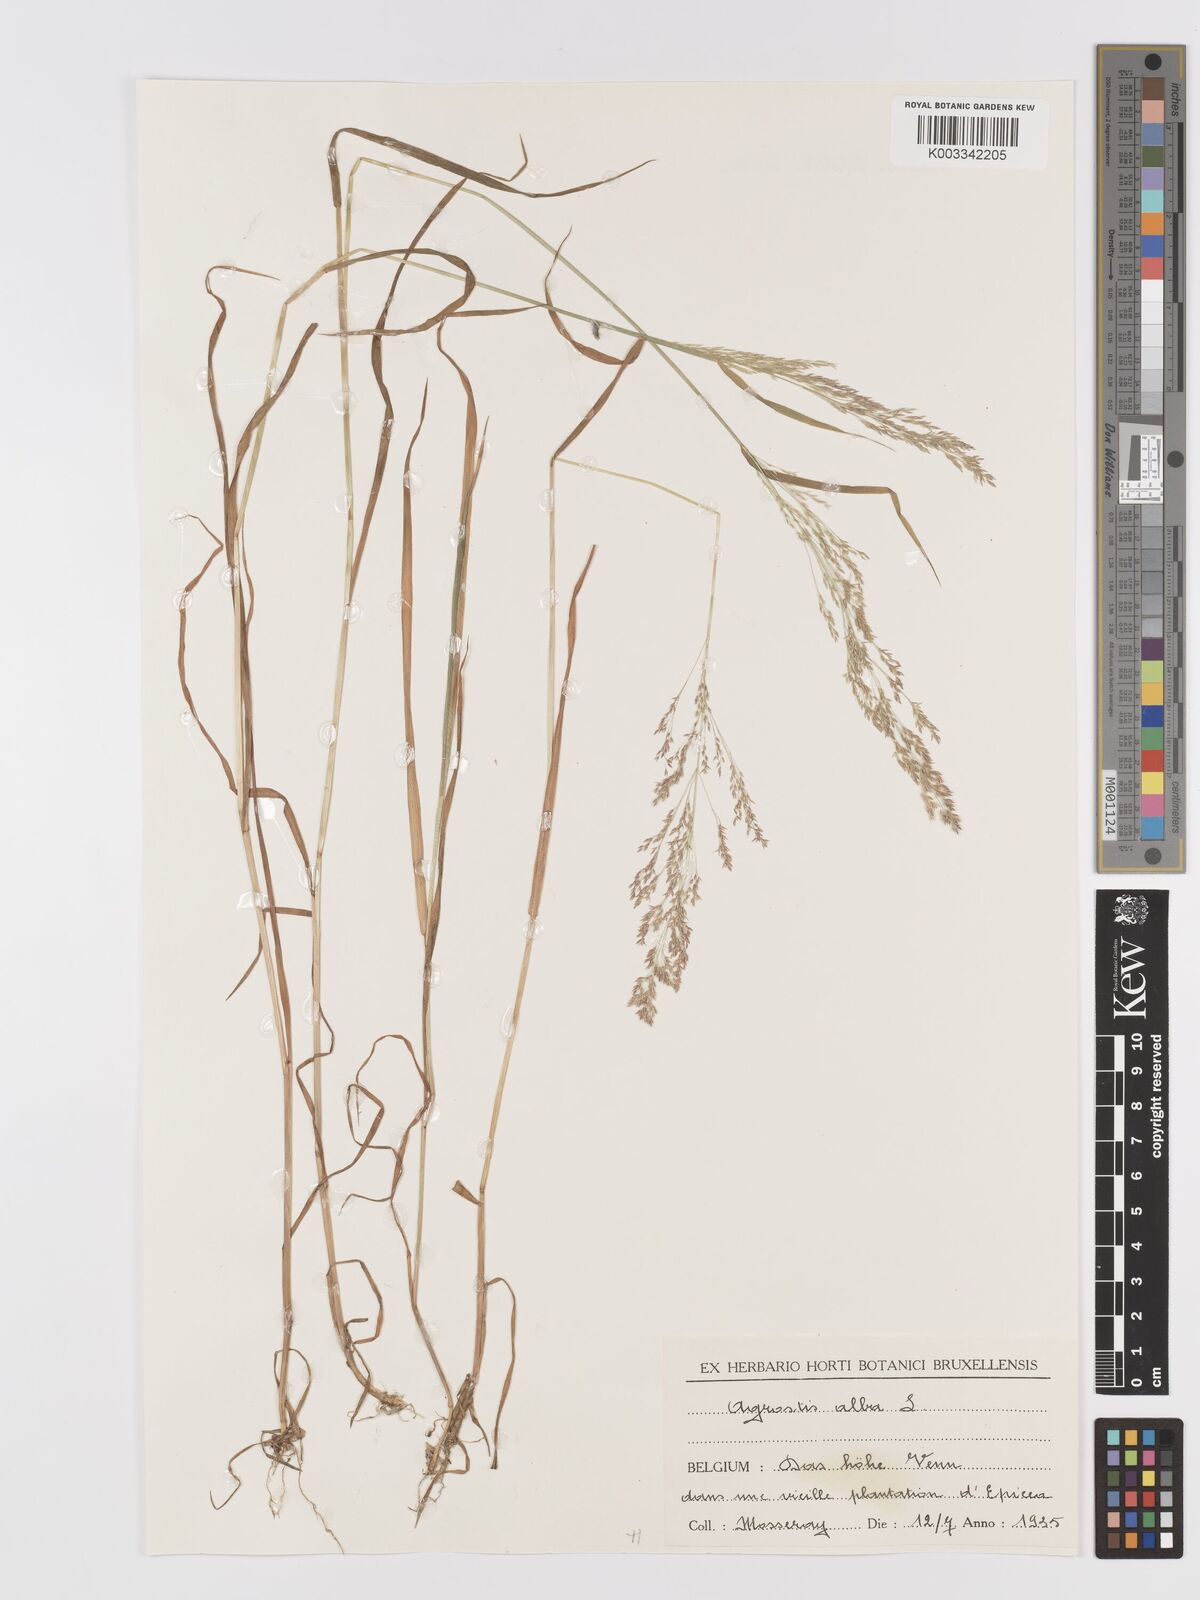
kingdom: Plantae
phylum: Tracheophyta
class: Liliopsida
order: Poales
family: Poaceae
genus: Agrostis
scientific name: Agrostis stolonifera
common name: Creeping bentgrass
